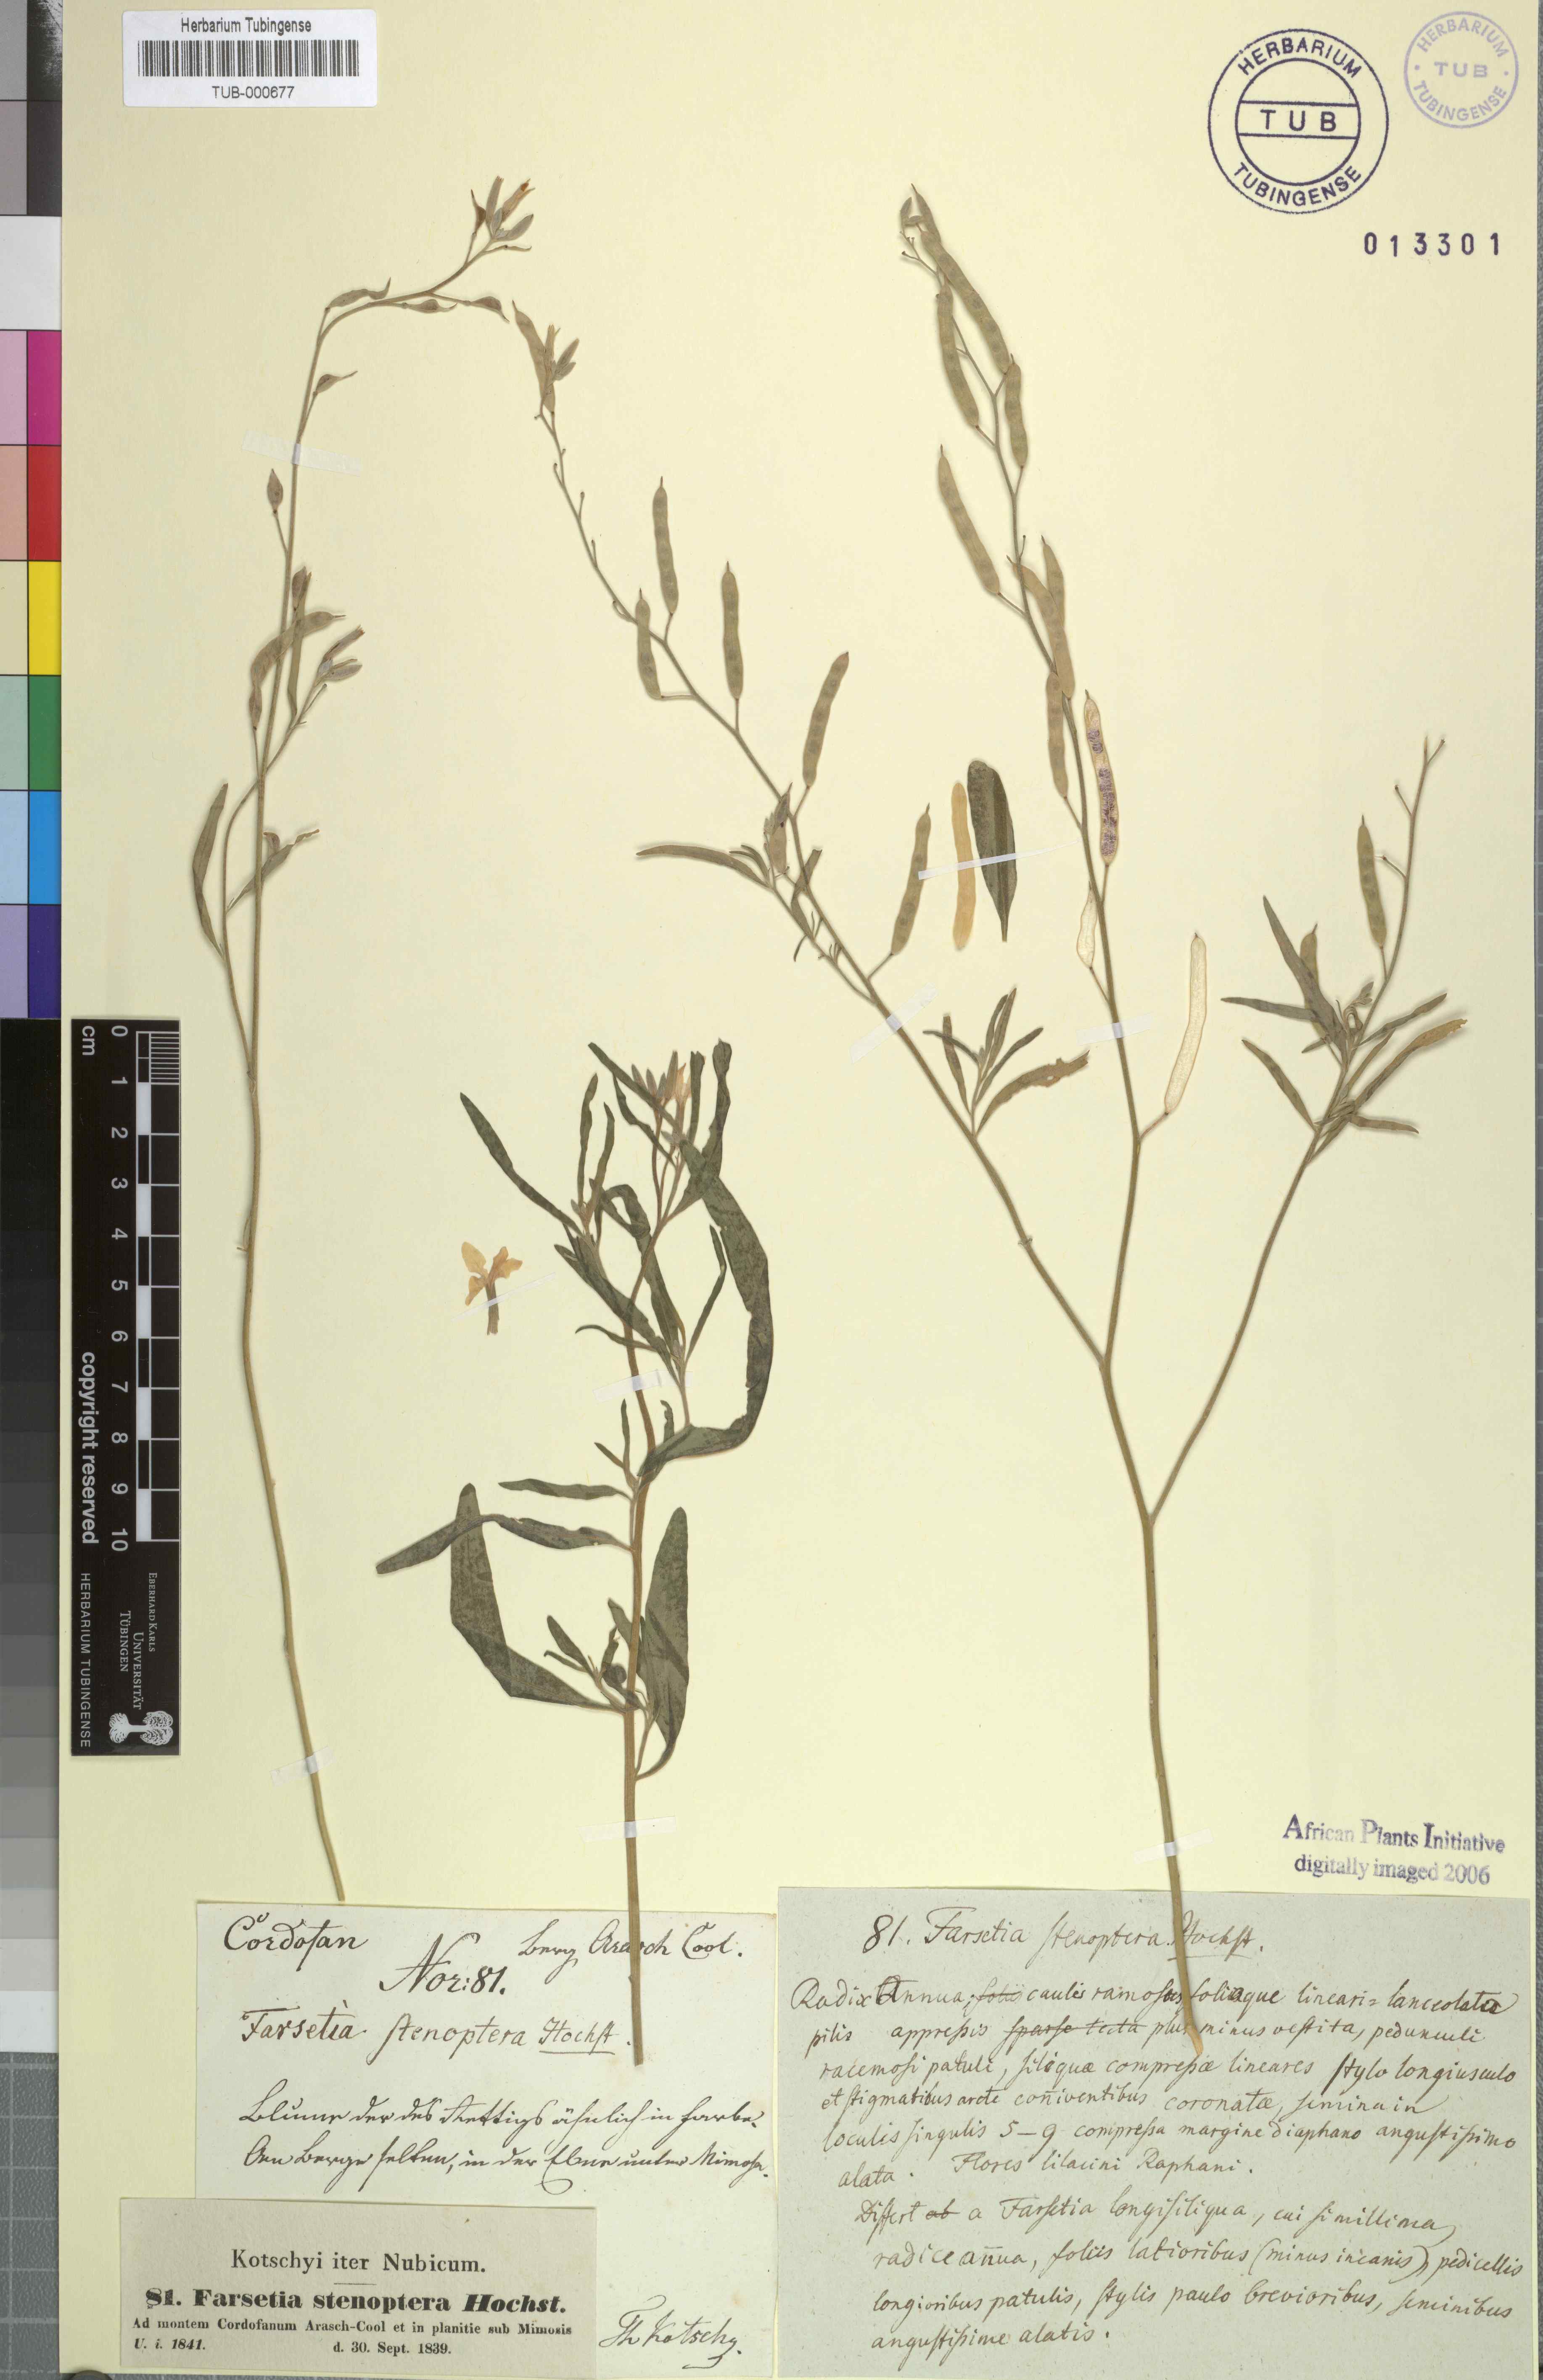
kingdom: Plantae
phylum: Tracheophyta
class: Magnoliopsida
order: Brassicales
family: Brassicaceae
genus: Farsetia
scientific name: Farsetia stenoptera
